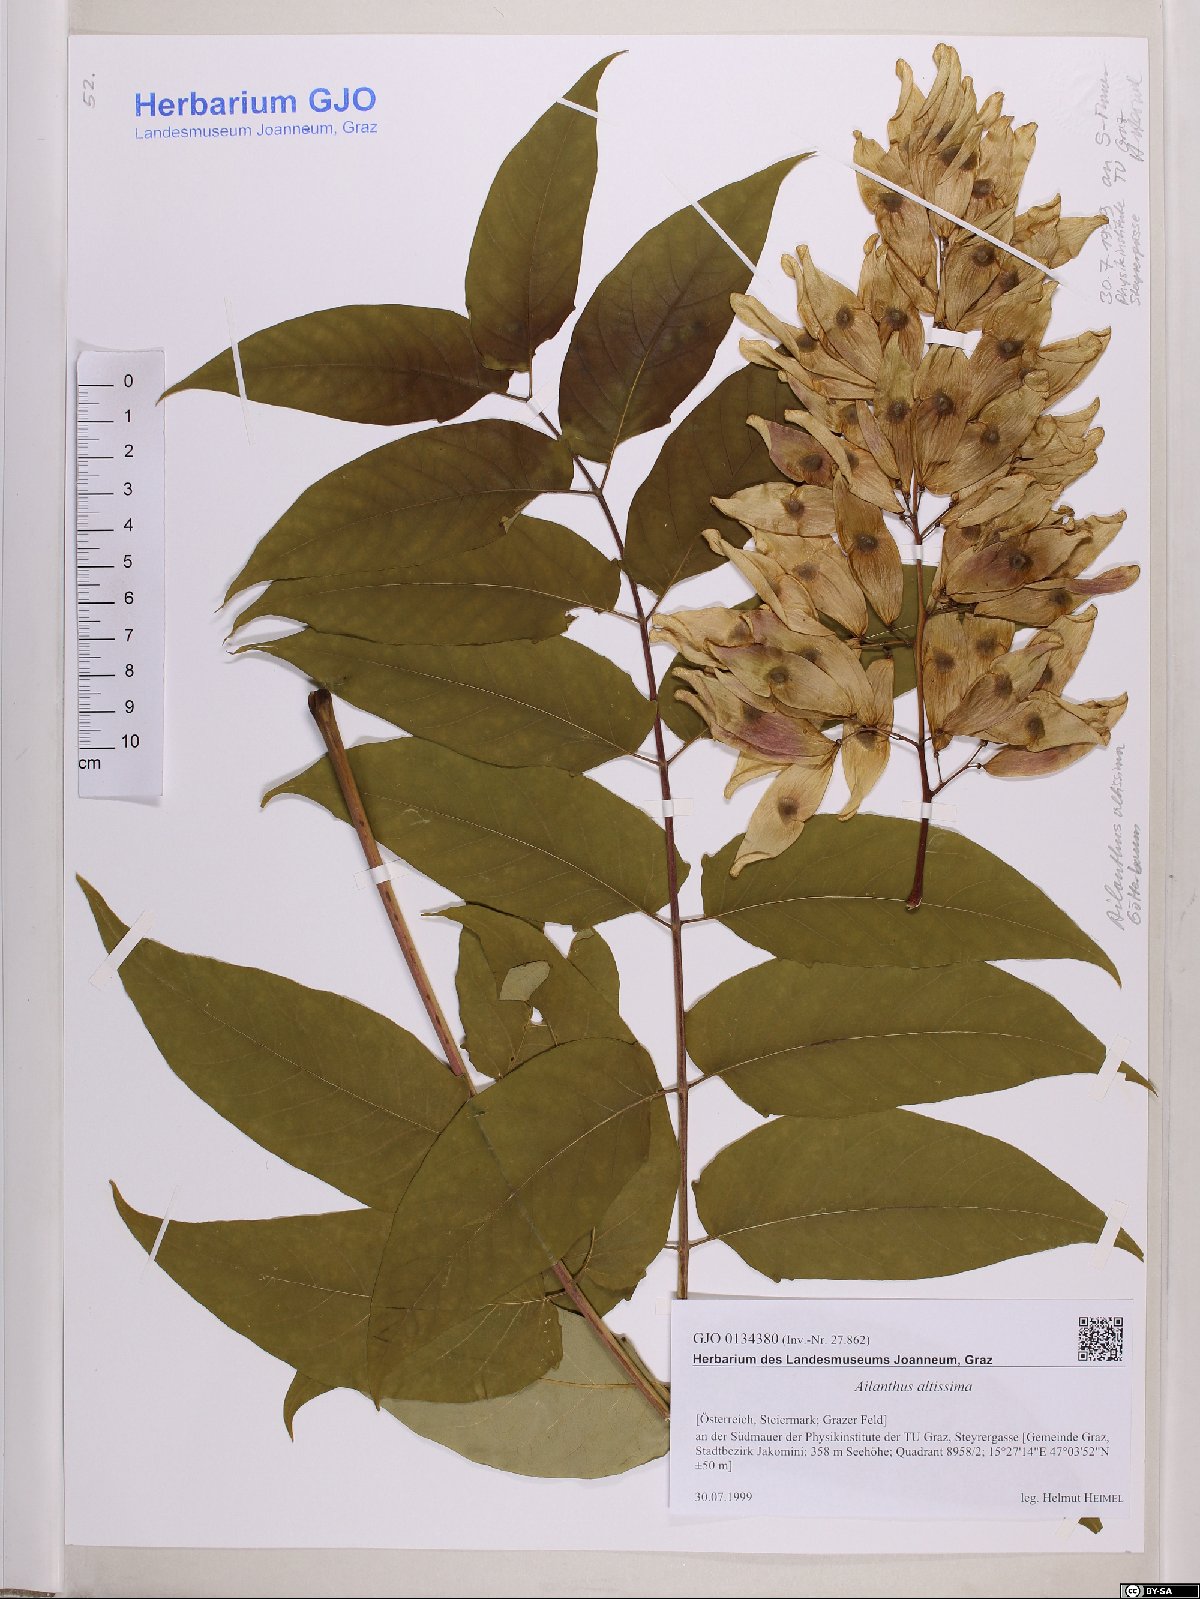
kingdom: Plantae
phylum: Tracheophyta
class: Magnoliopsida
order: Sapindales
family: Simaroubaceae
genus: Ailanthus
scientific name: Ailanthus altissima
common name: Tree-of-heaven
